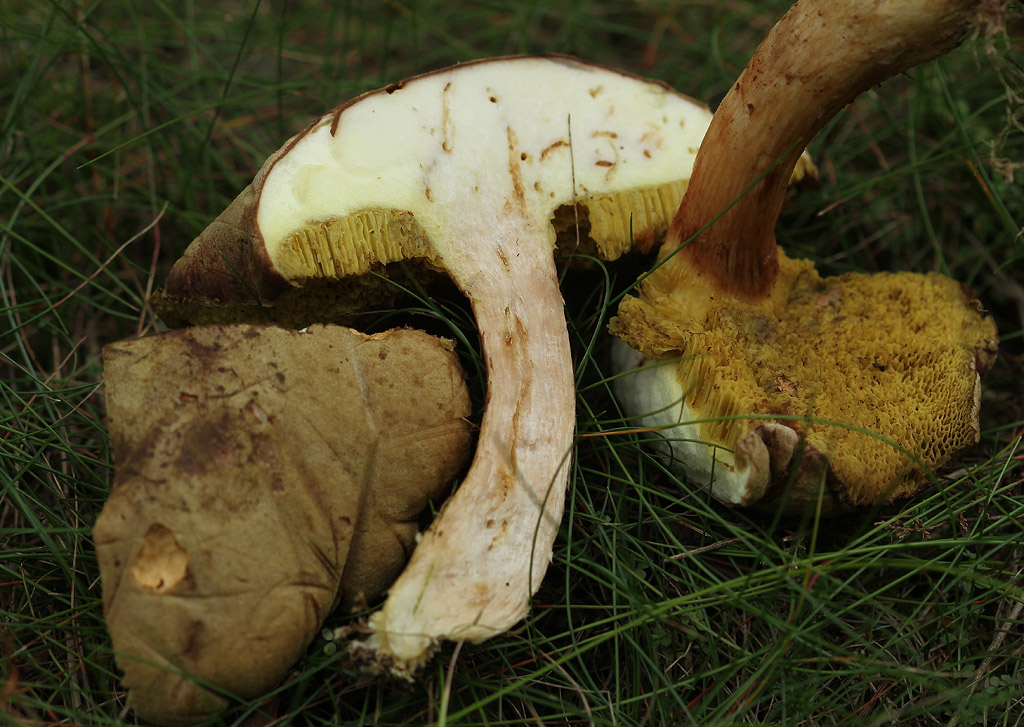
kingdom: Fungi
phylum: Basidiomycota
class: Agaricomycetes
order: Boletales
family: Boletaceae
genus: Xerocomus
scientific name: Xerocomus ferrugineus
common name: vaskeskinds-rørhat
